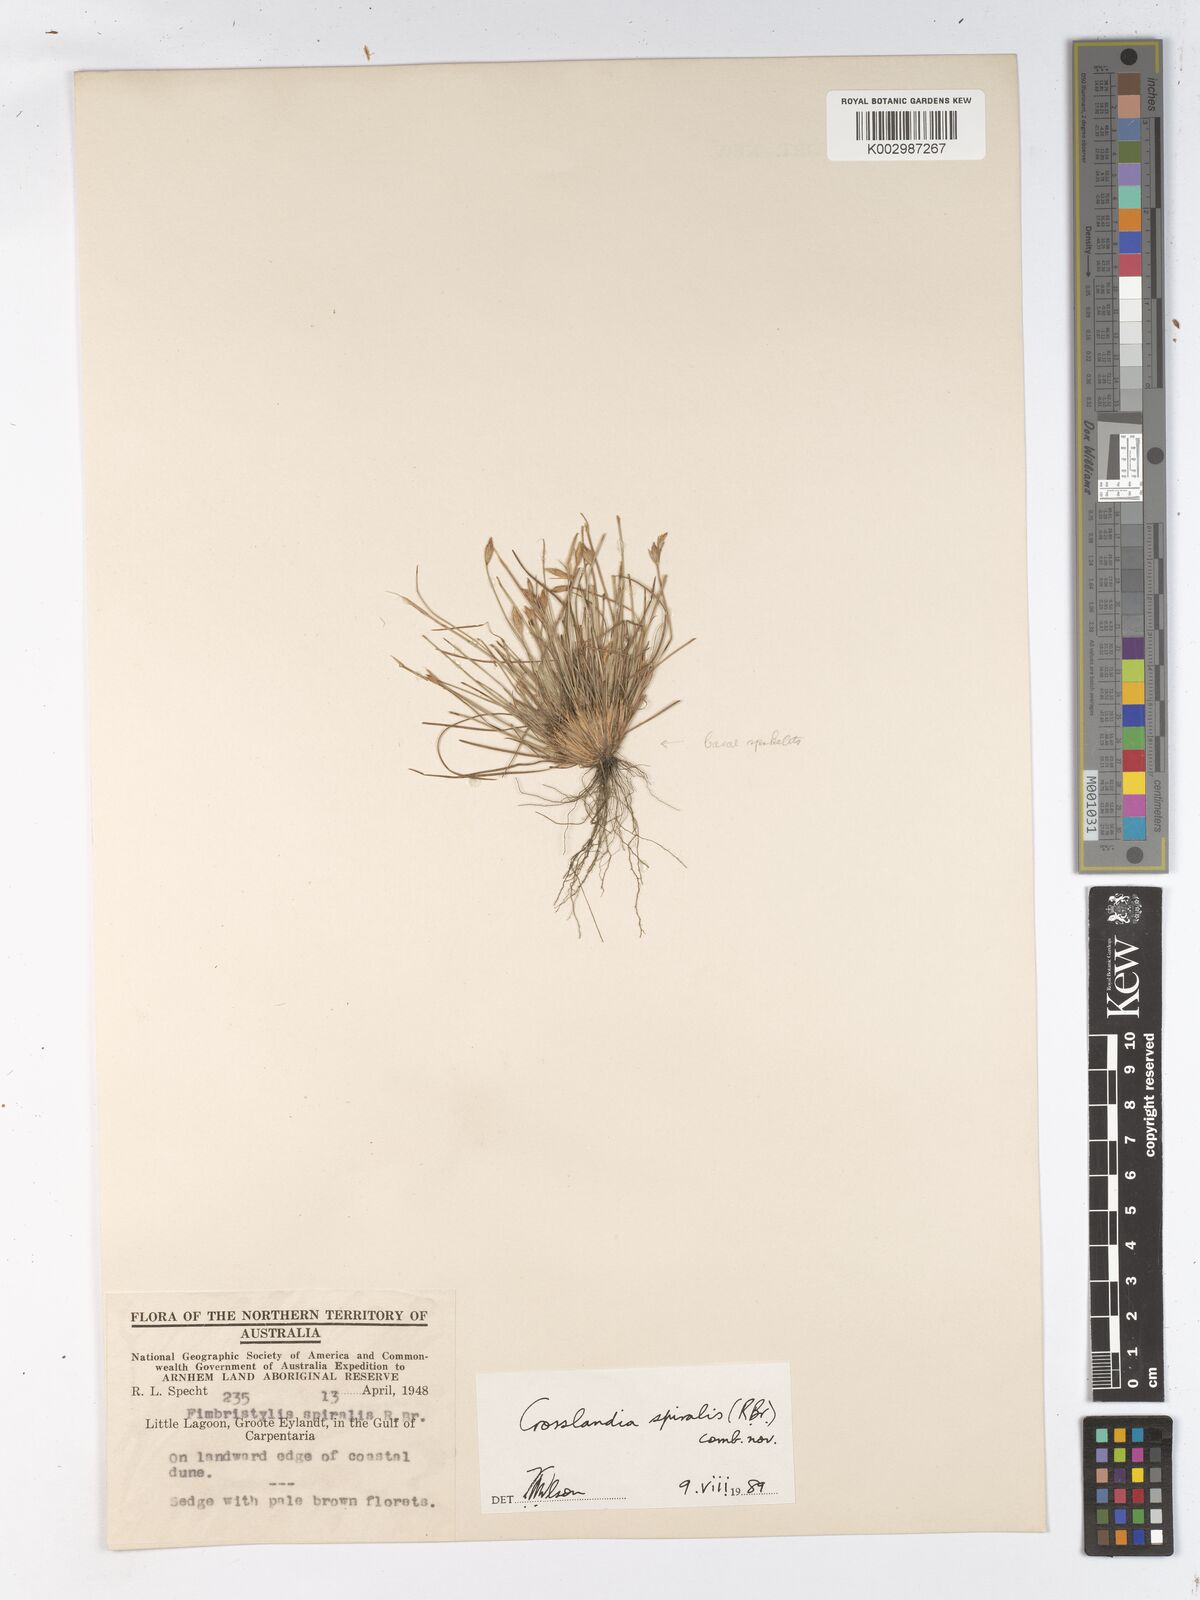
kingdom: Animalia
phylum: Mollusca
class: Gastropoda
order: Nudibranchia
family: Scyllaeidae
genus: Crosslandia
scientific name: Crosslandia
